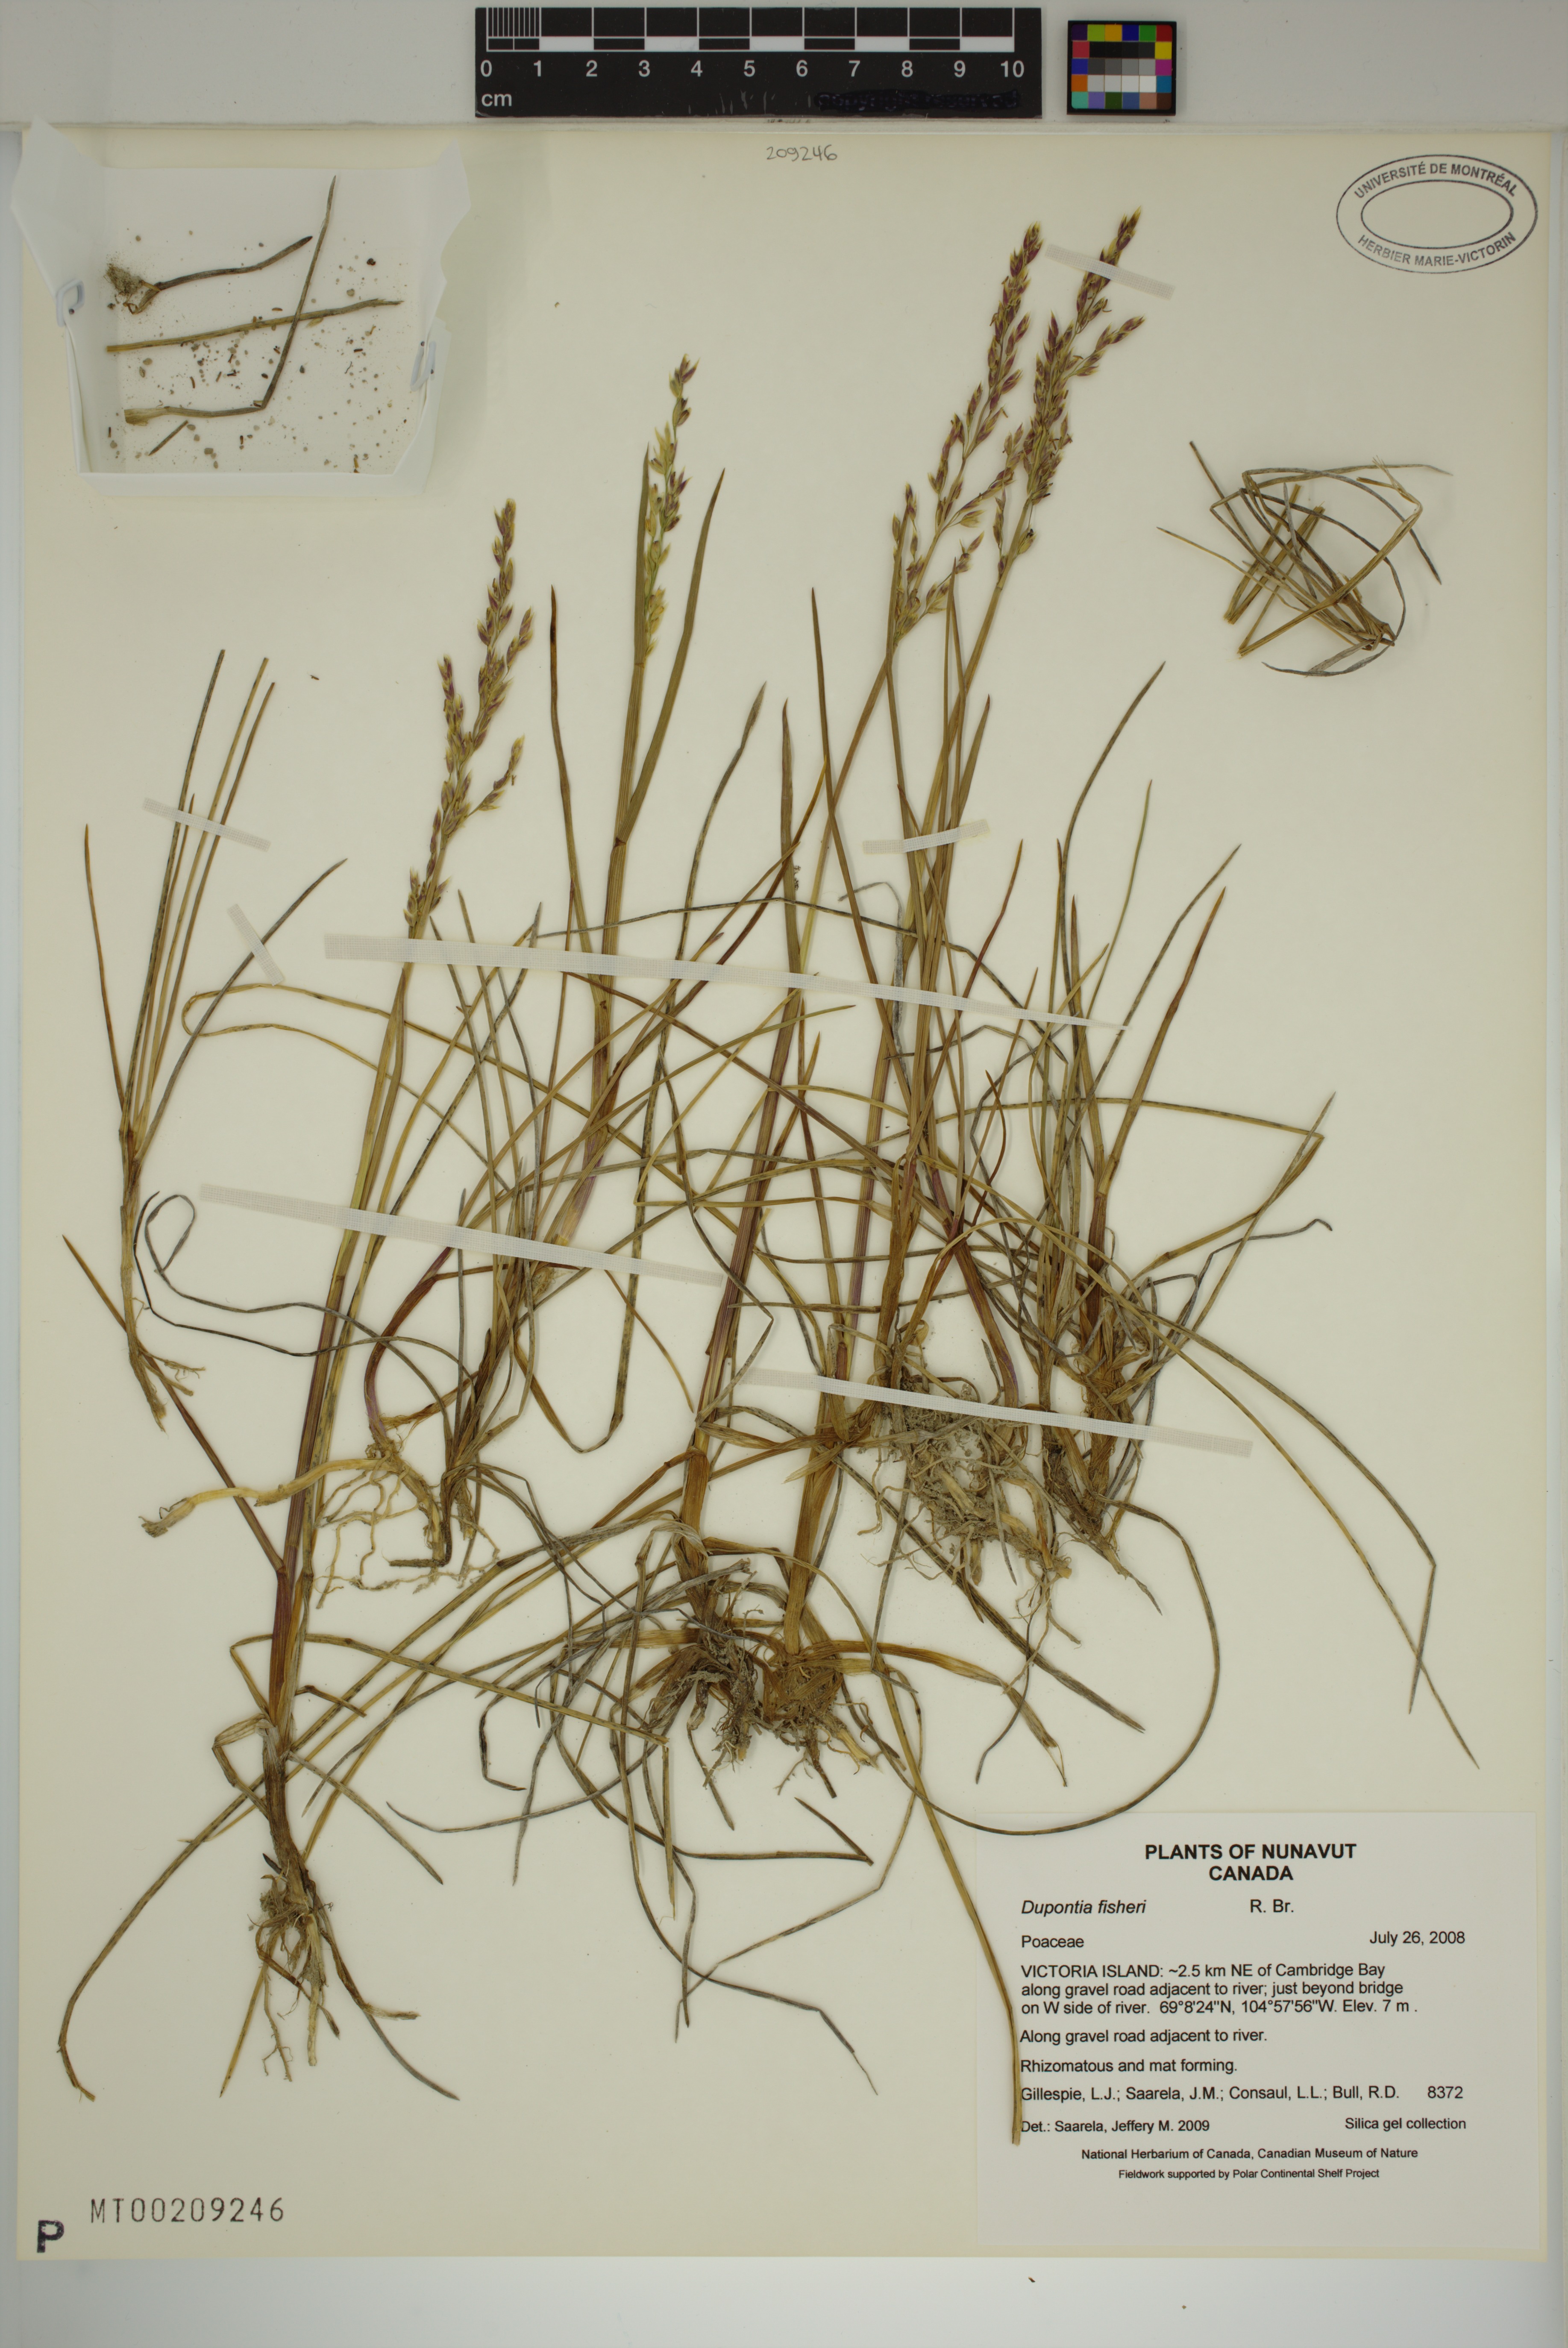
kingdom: Plantae
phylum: Tracheophyta
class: Liliopsida
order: Poales
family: Poaceae
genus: Dupontia
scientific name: Dupontia fisheri
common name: Tundra grass
